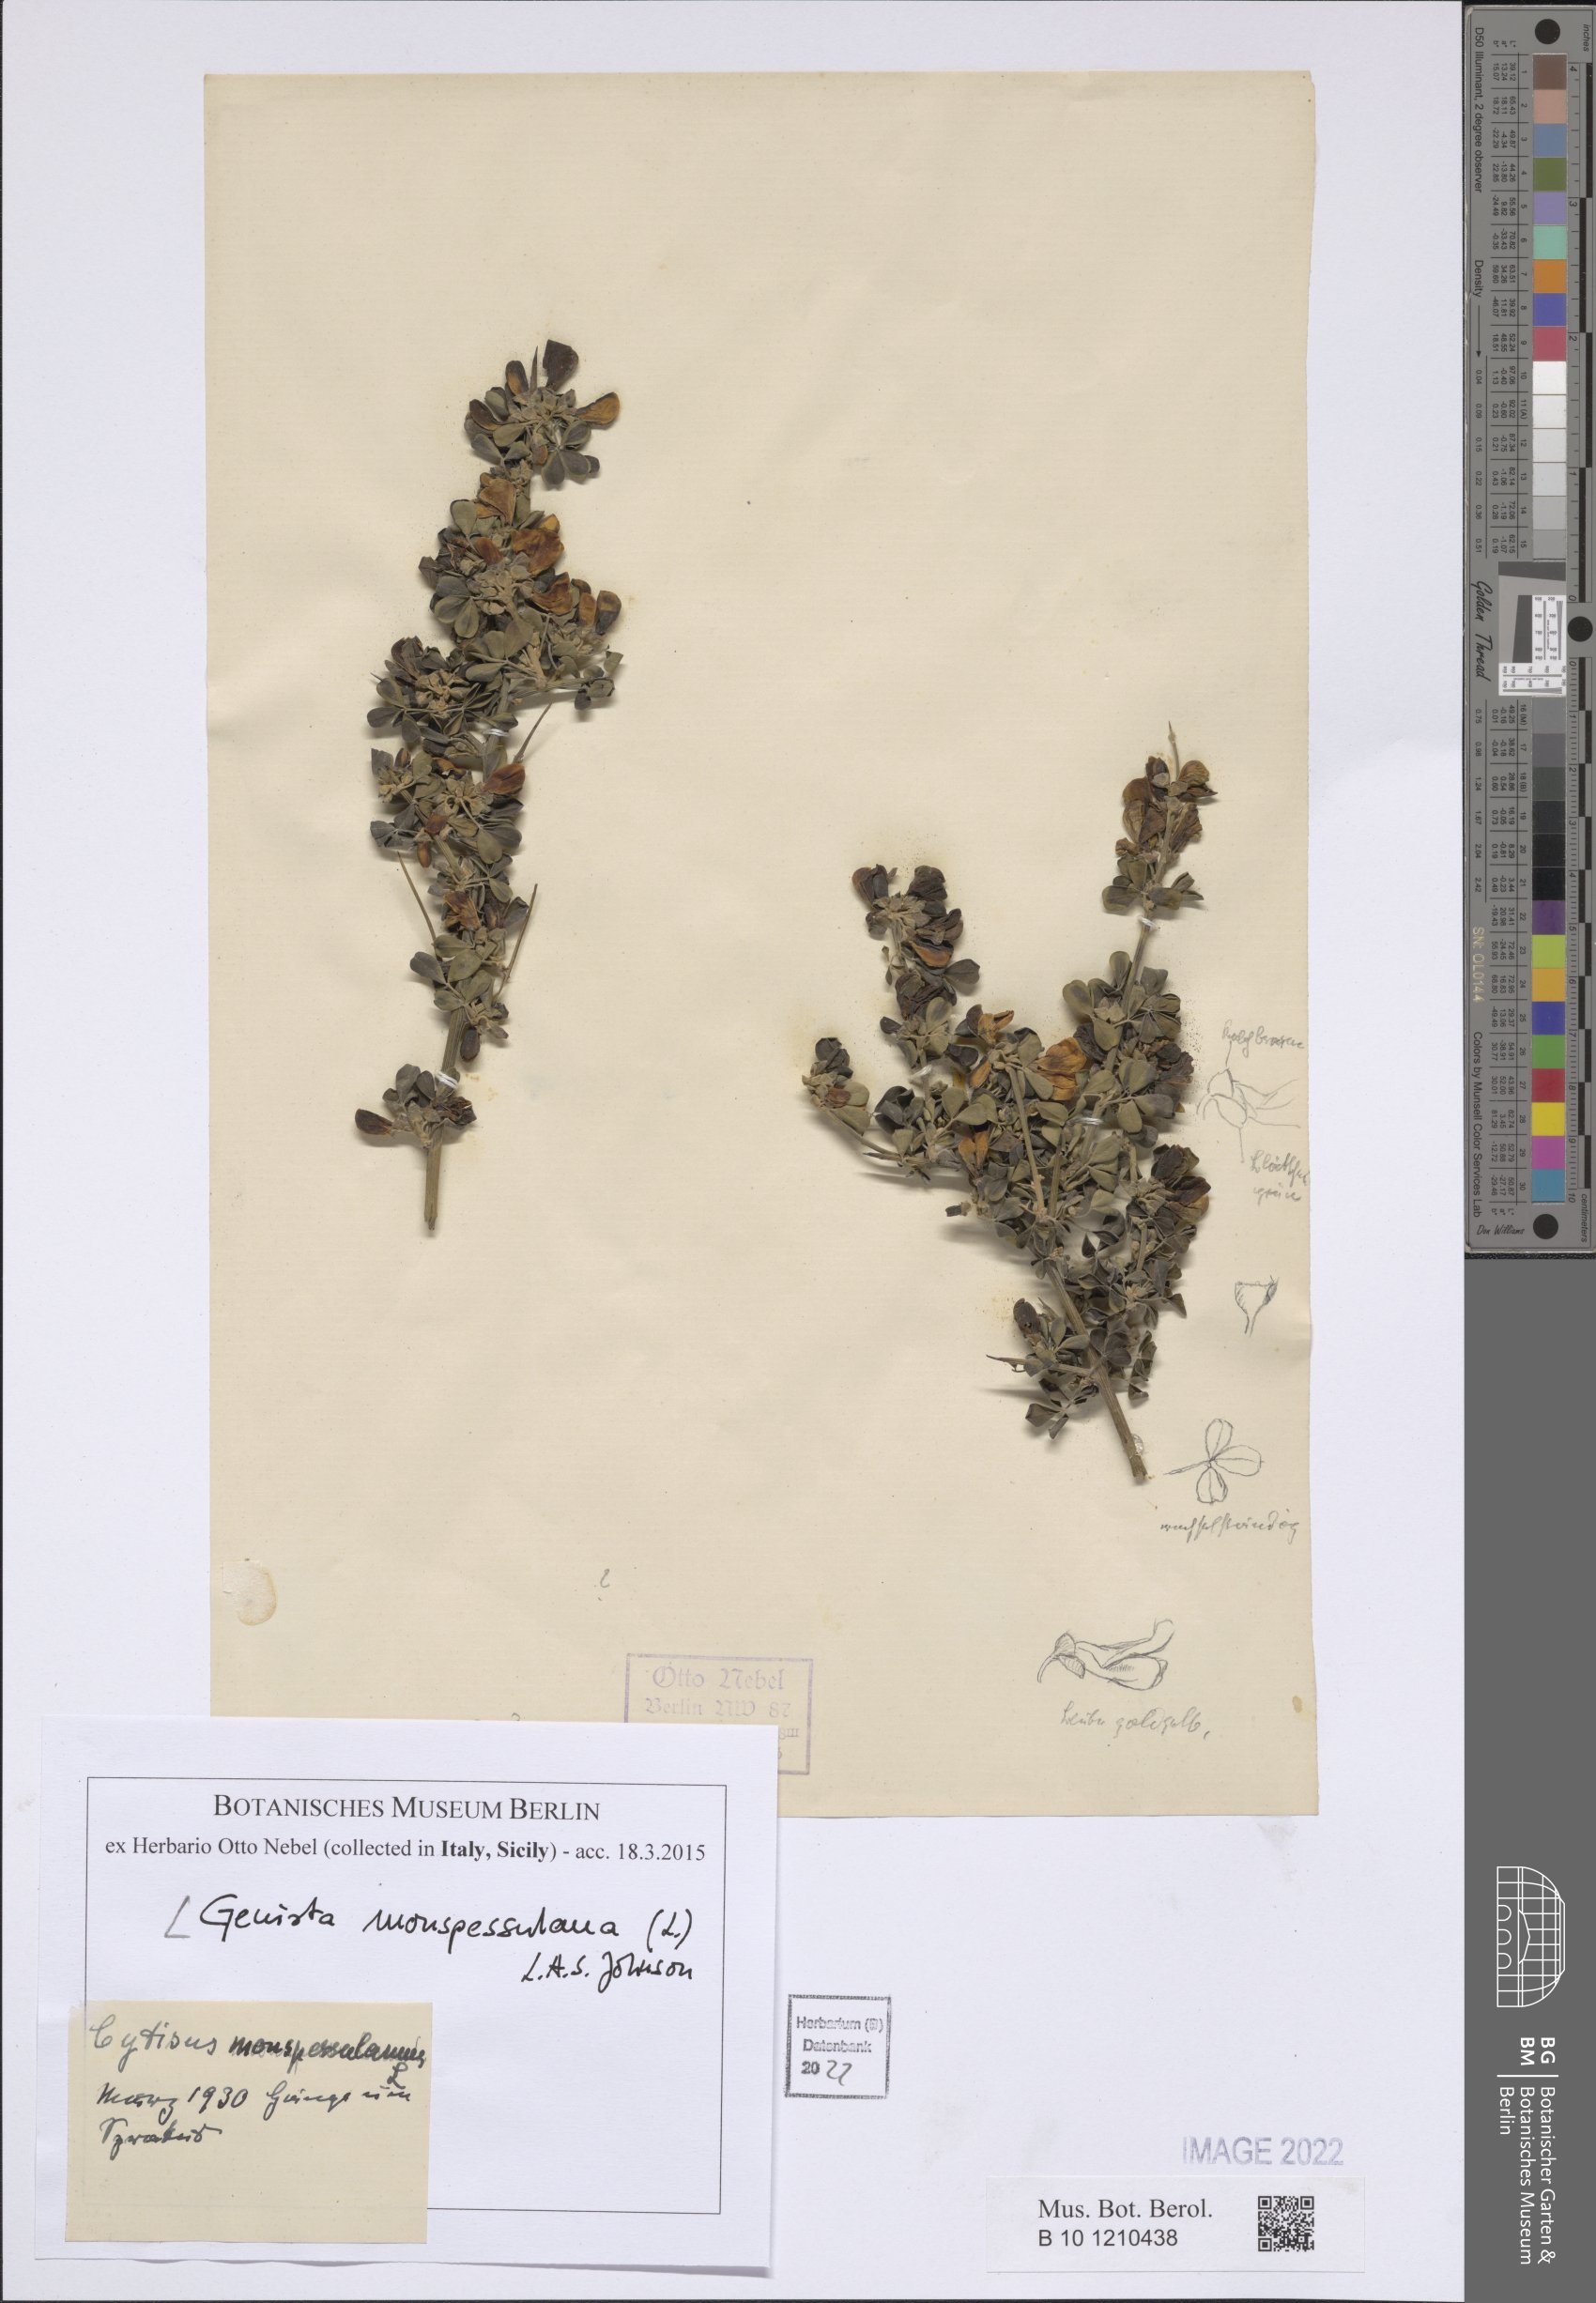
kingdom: Plantae
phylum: Tracheophyta
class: Magnoliopsida
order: Fabales
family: Fabaceae
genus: Genista
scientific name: Genista monspessulana
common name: Montpellier broom
